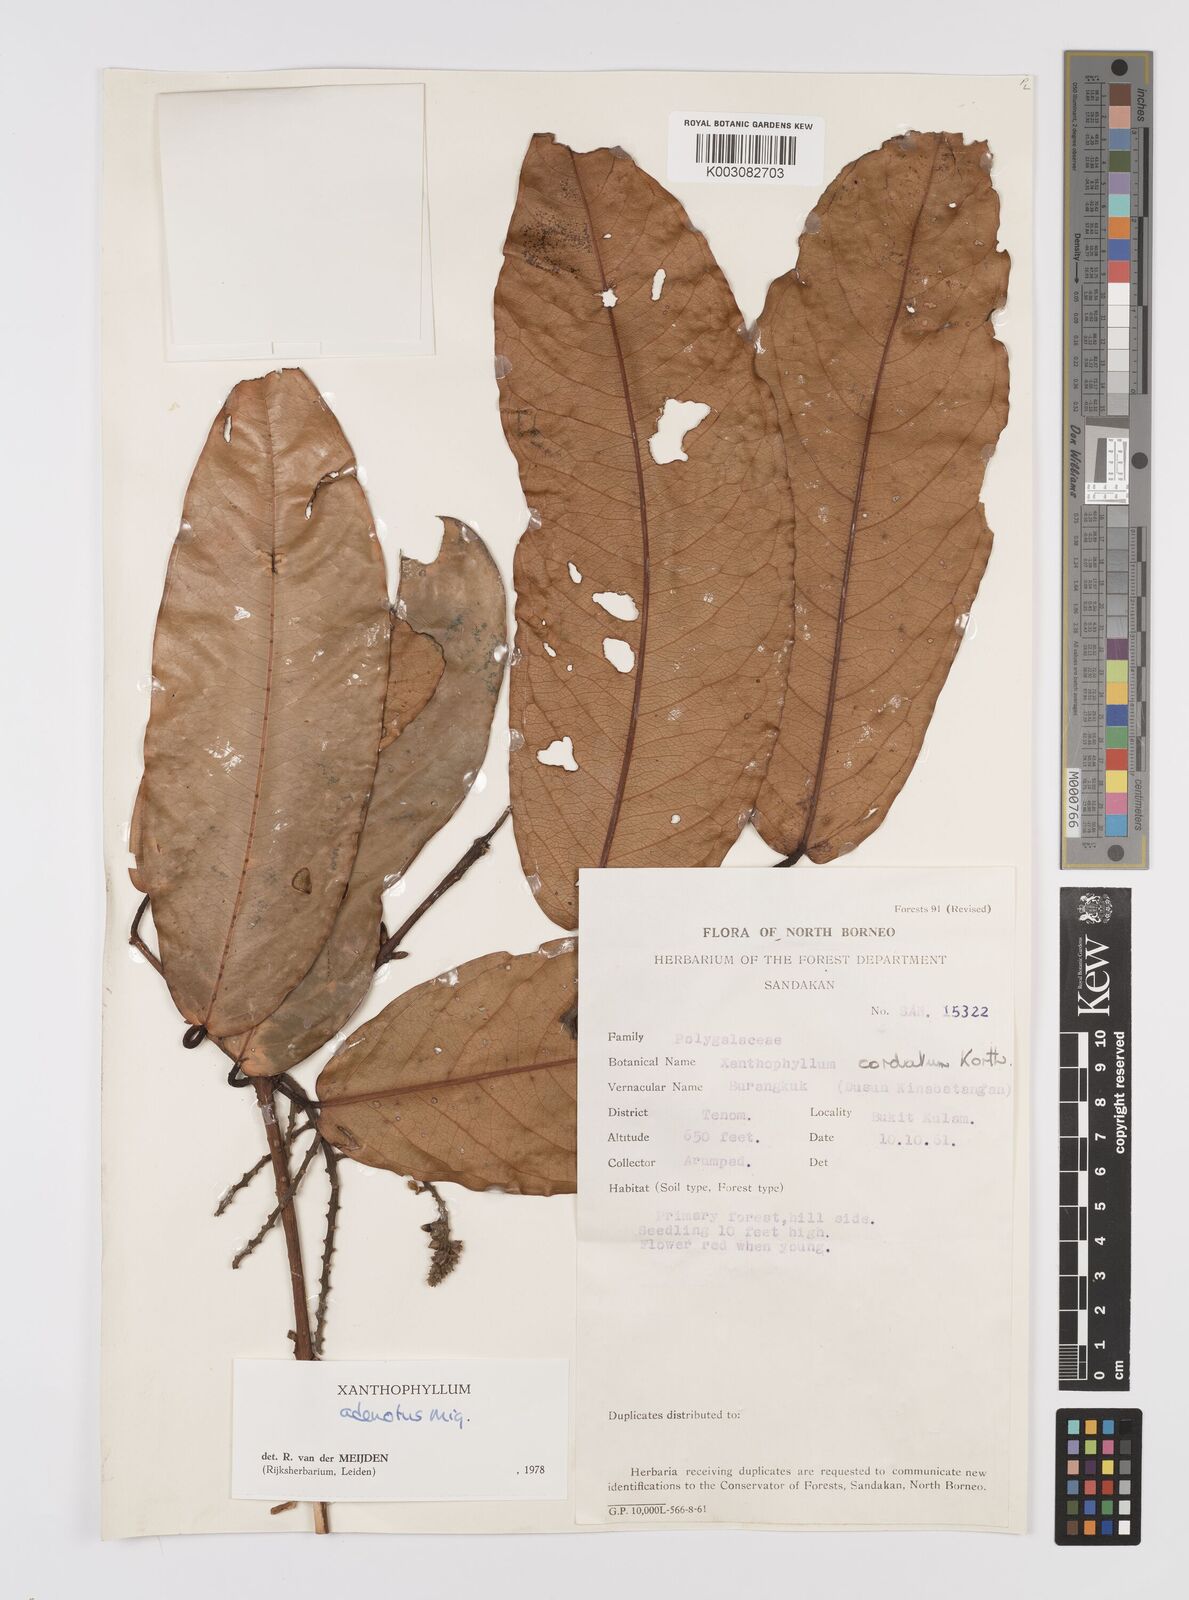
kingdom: Plantae
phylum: Tracheophyta
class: Magnoliopsida
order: Fabales
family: Polygalaceae
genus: Xanthophyllum
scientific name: Xanthophyllum adenotus
